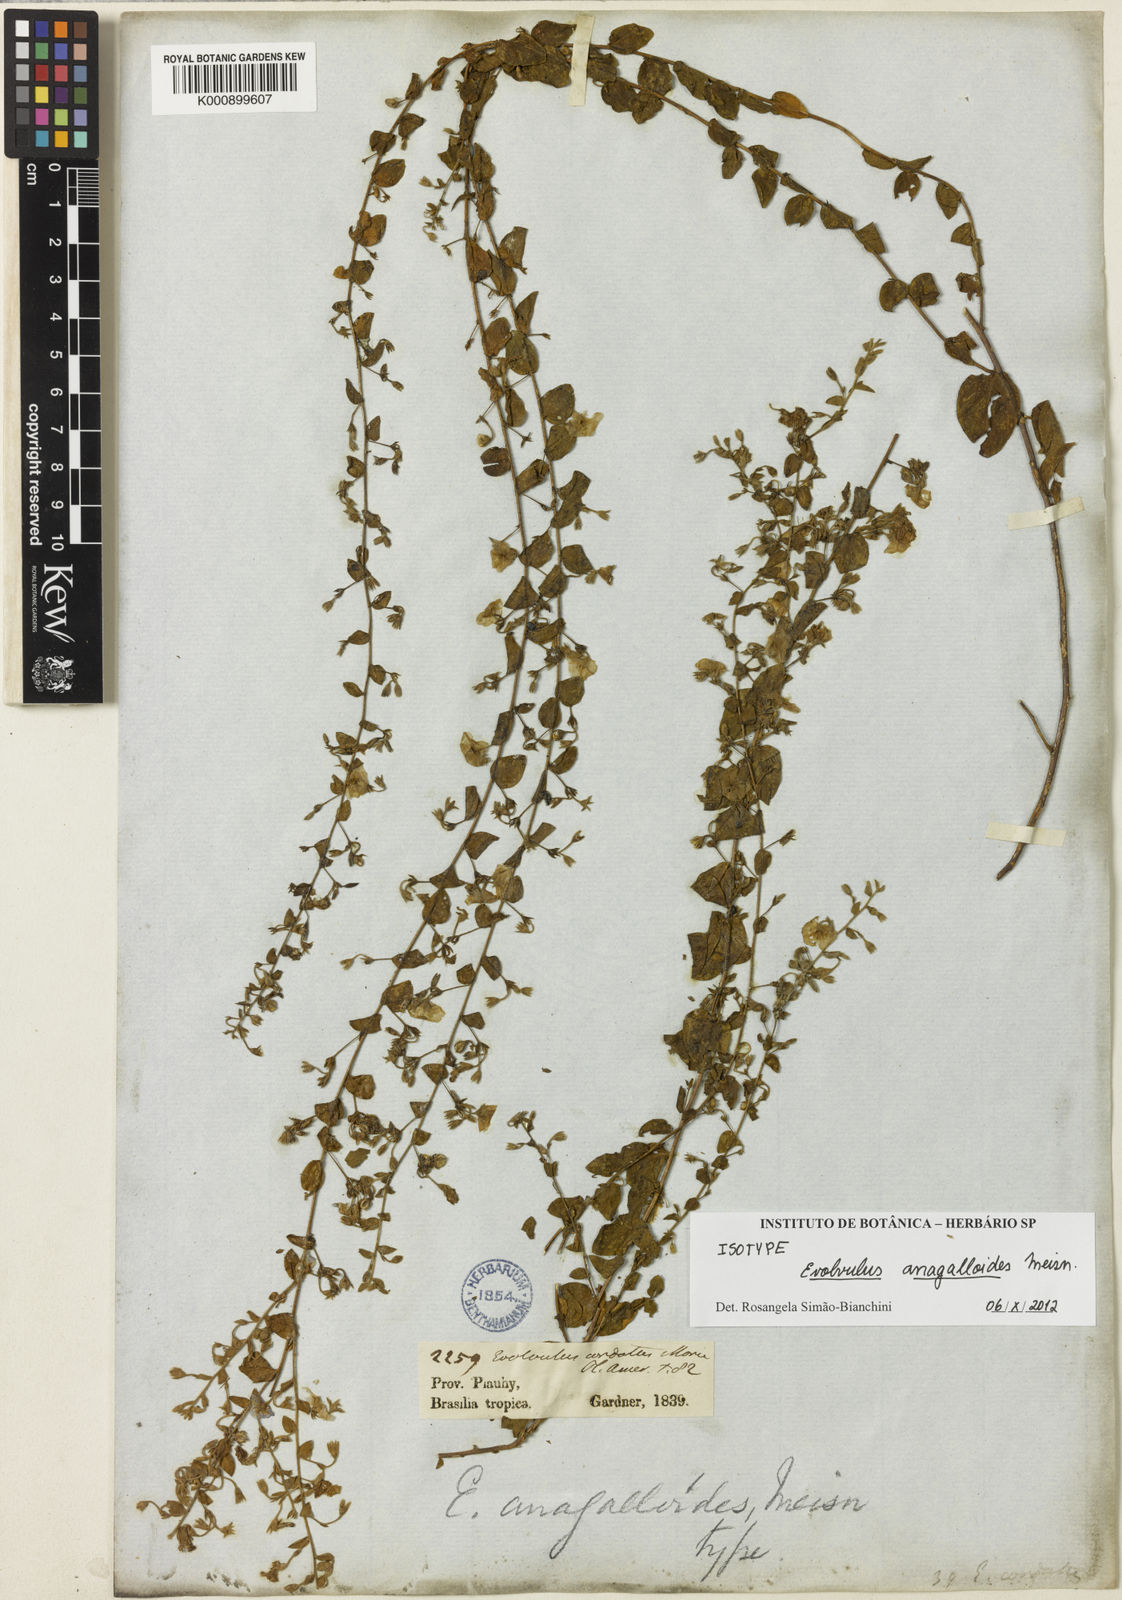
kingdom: Plantae
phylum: Tracheophyta
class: Magnoliopsida
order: Solanales
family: Convolvulaceae
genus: Evolvulus
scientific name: Evolvulus anagalloides
